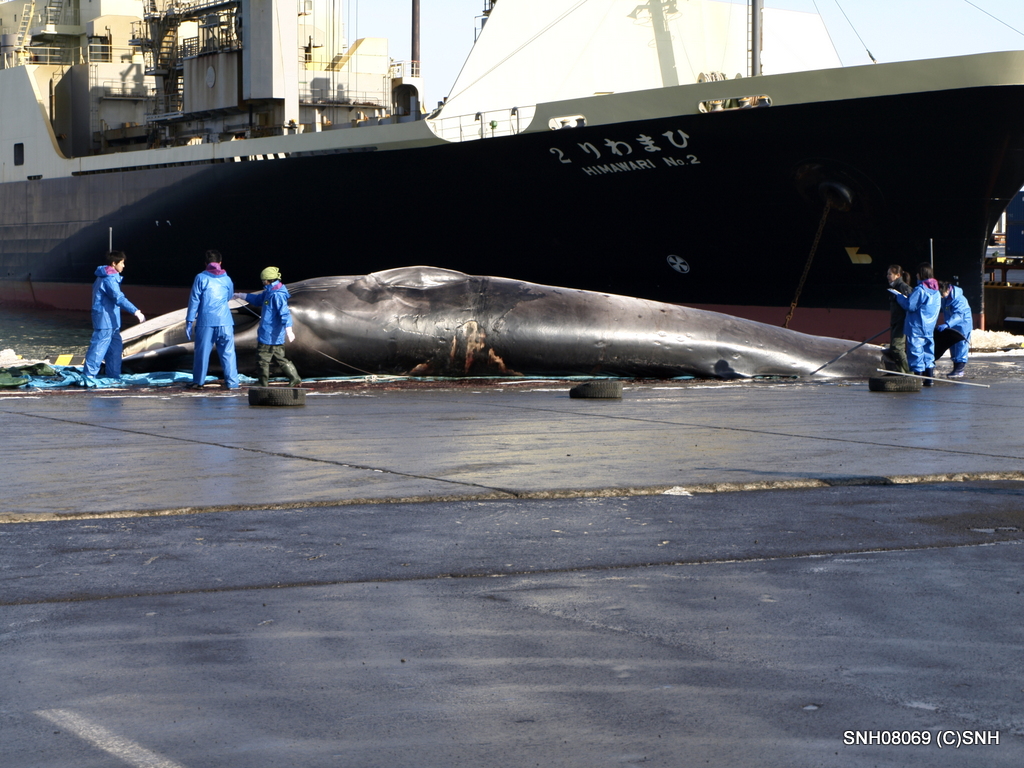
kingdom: Animalia
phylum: Chordata
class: Mammalia
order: Cetacea
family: Balaenopteridae
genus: Balaenoptera
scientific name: Balaenoptera physalus
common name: Fin whale
